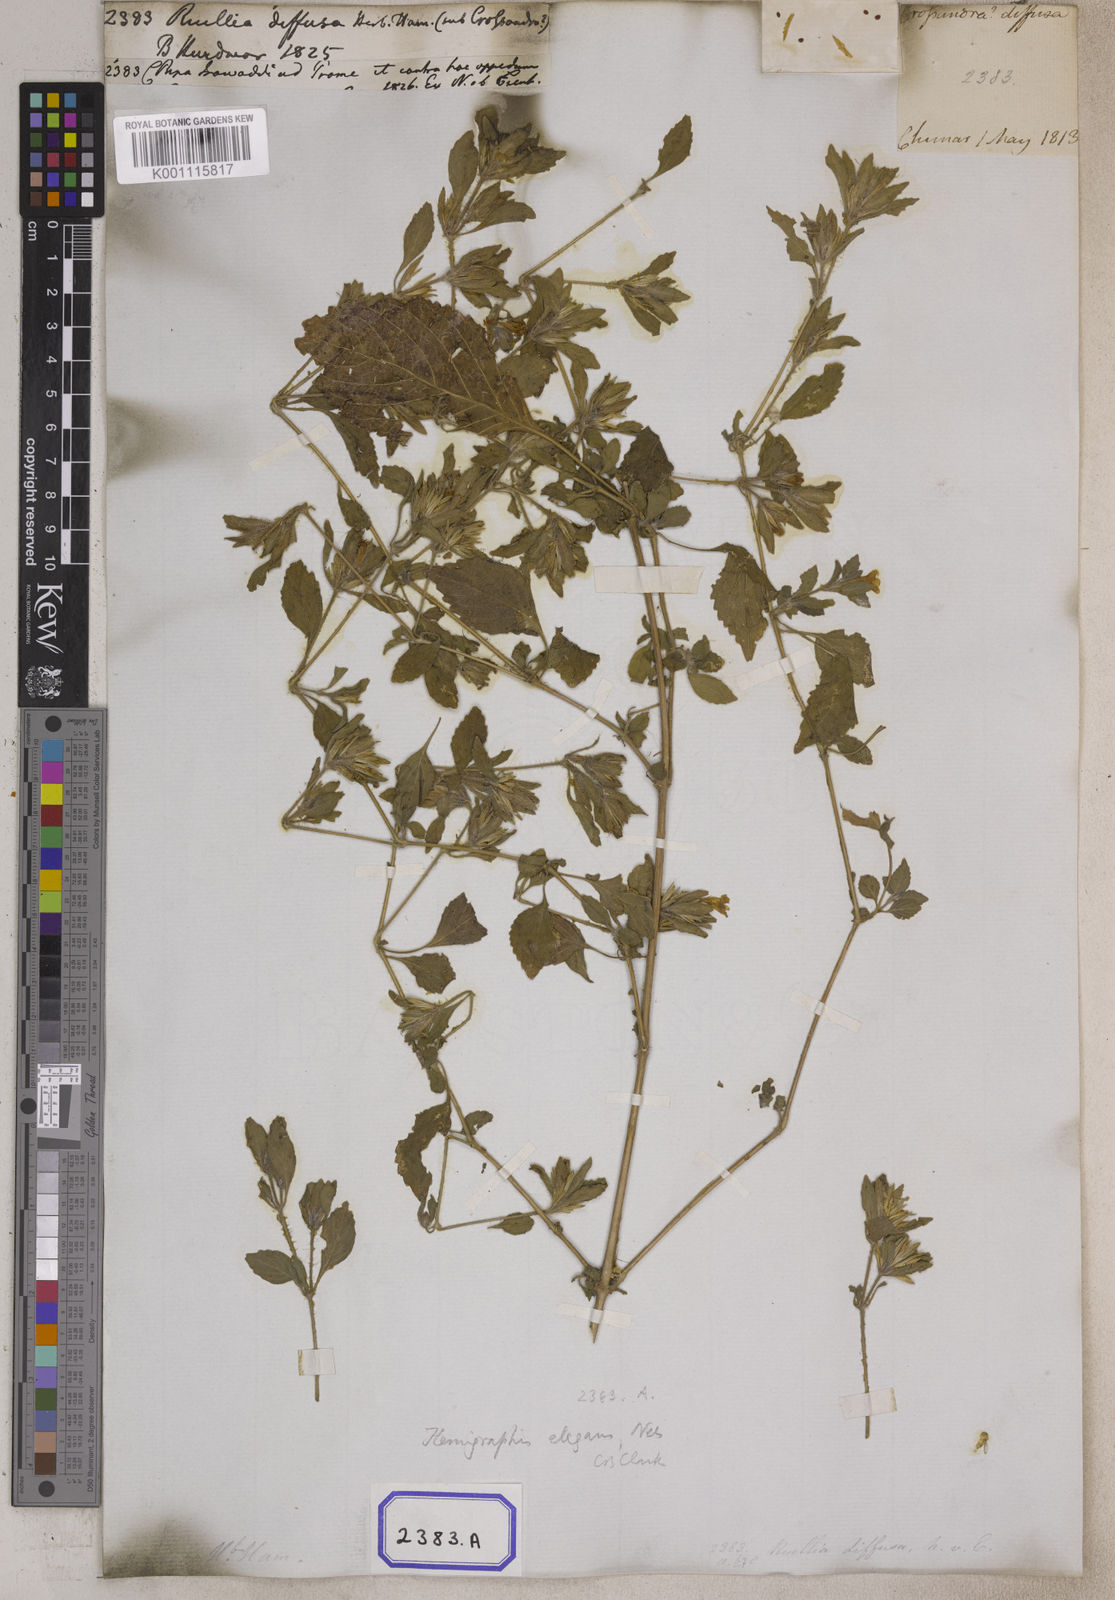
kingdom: Plantae
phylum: Tracheophyta
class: Magnoliopsida
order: Lamiales
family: Acanthaceae
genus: Ruellia
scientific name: Ruellia
